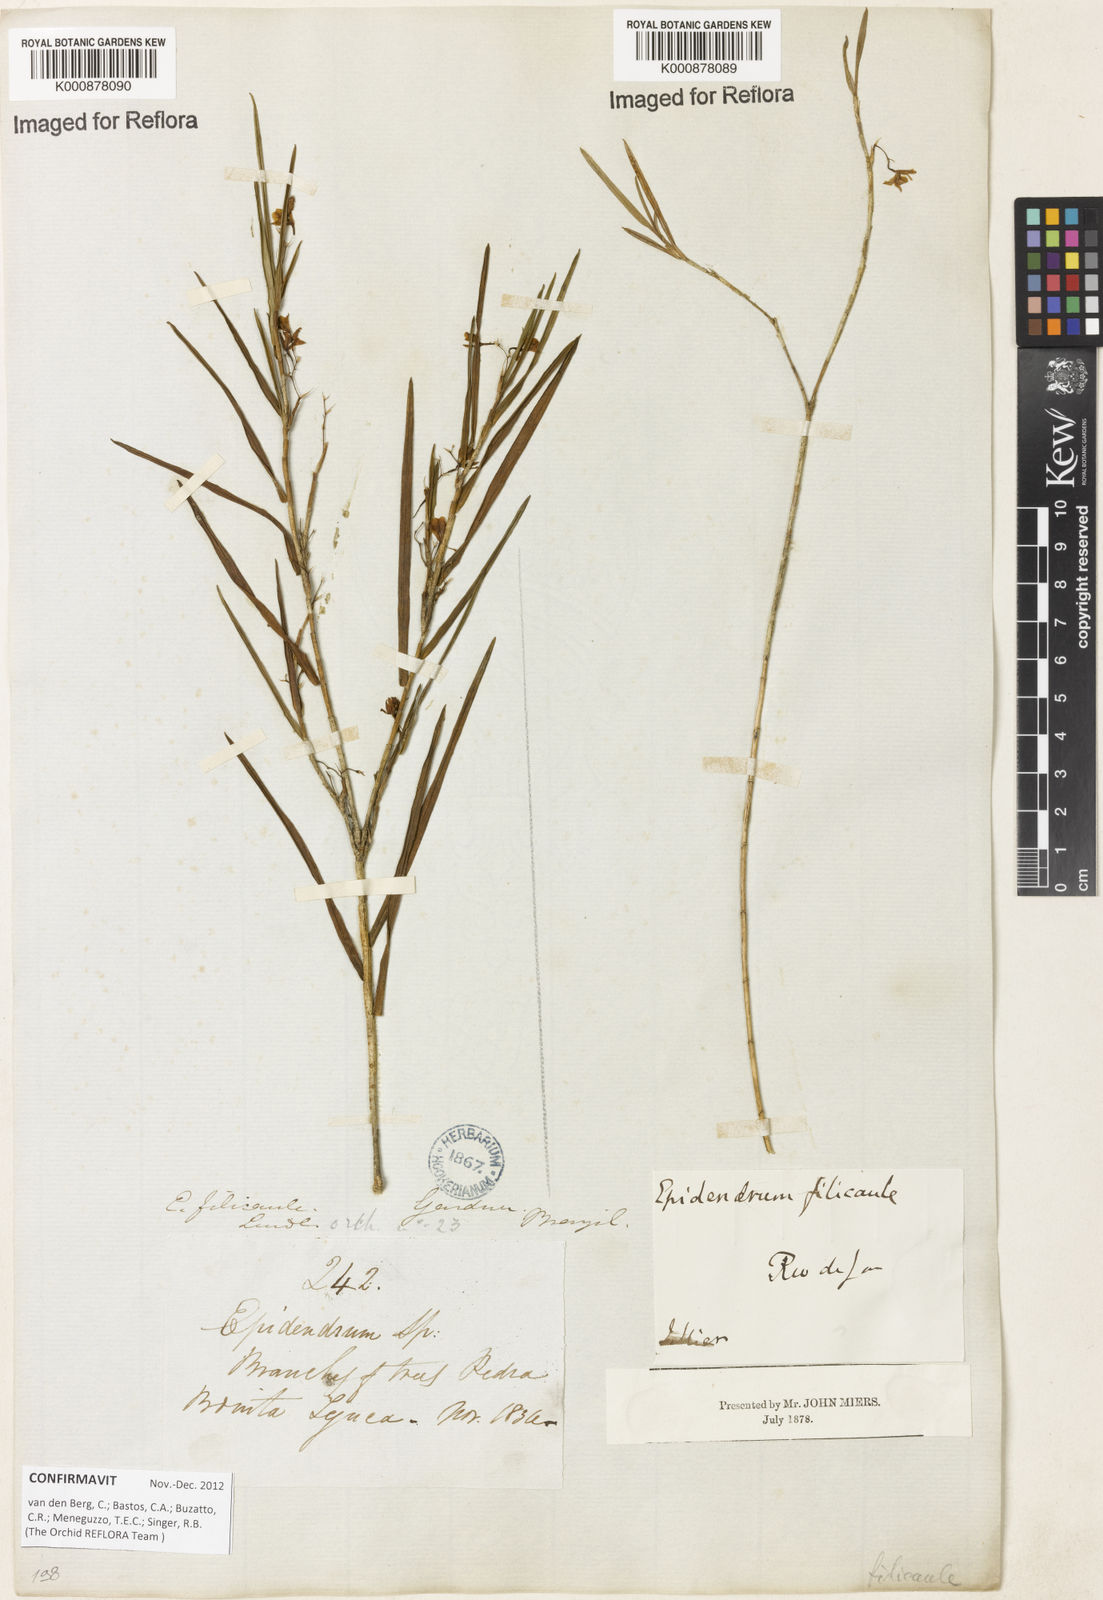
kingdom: Plantae
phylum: Tracheophyta
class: Liliopsida
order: Asparagales
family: Orchidaceae
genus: Epidendrum
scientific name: Epidendrum filicaule
